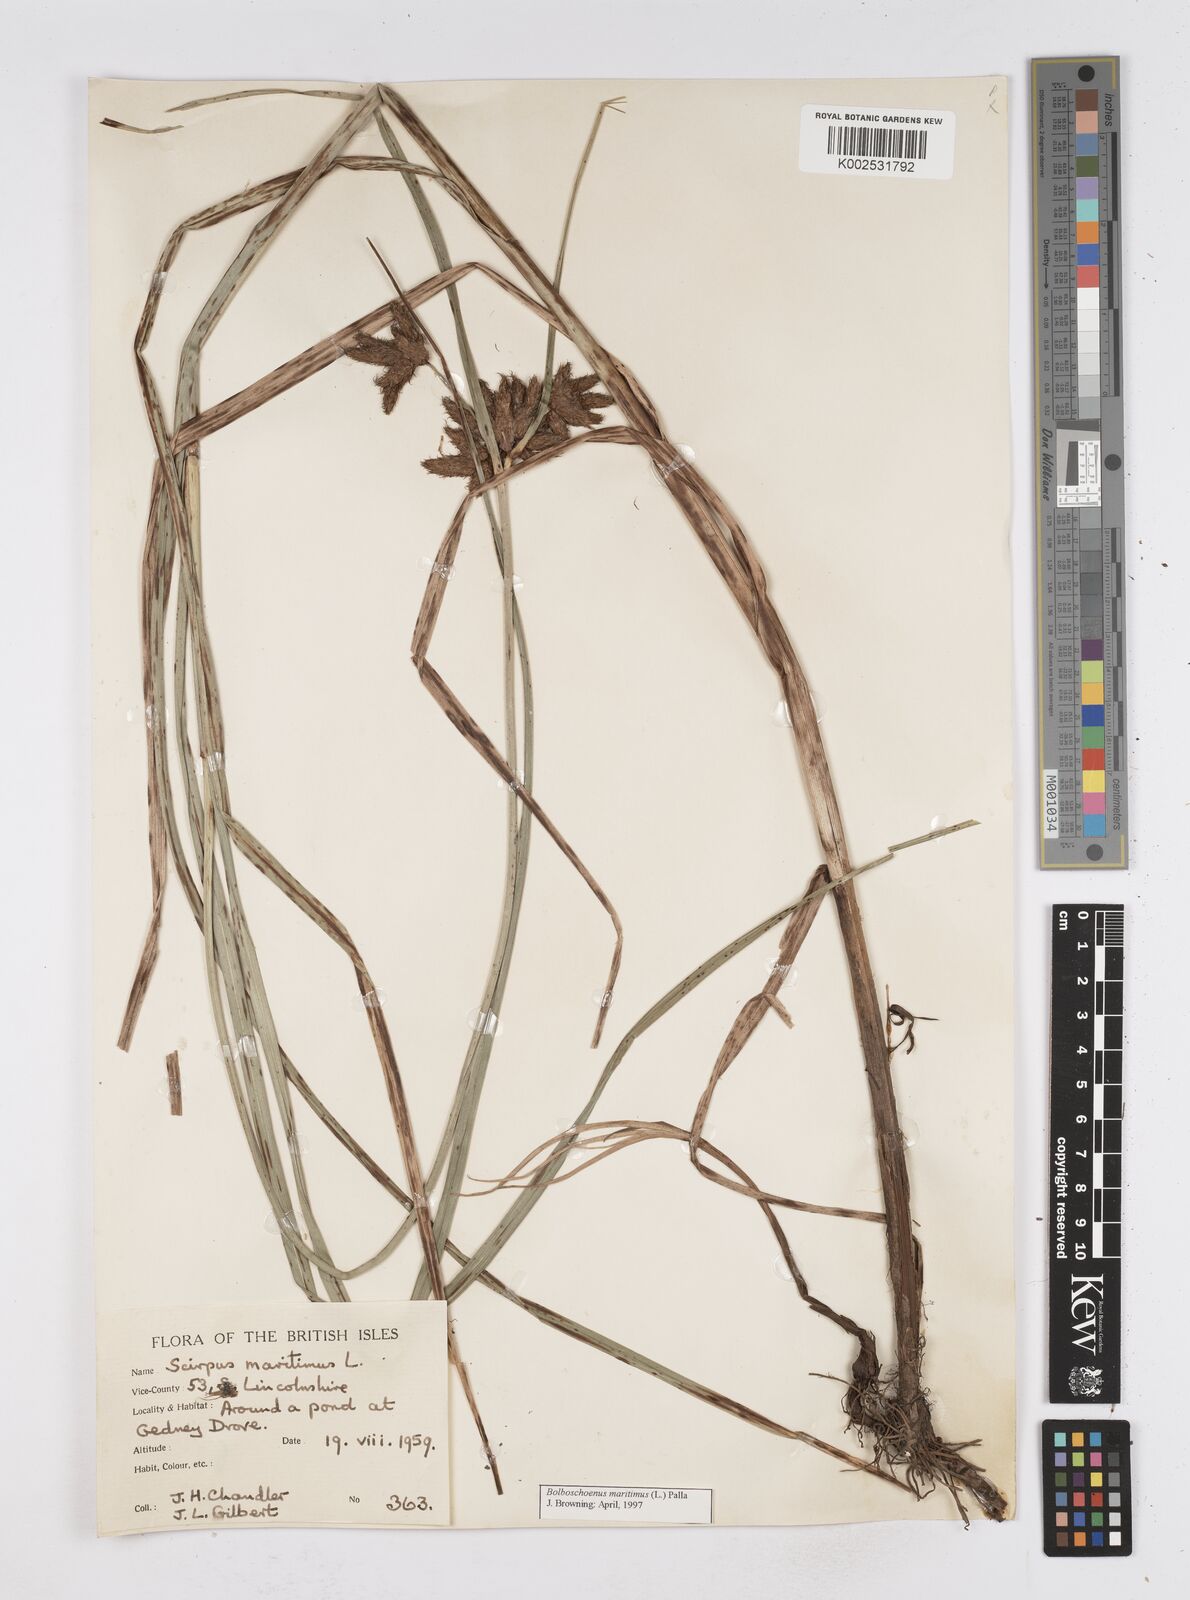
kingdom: Plantae
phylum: Tracheophyta
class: Liliopsida
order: Poales
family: Cyperaceae
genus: Bolboschoenus
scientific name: Bolboschoenus maritimus
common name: Sea club-rush
